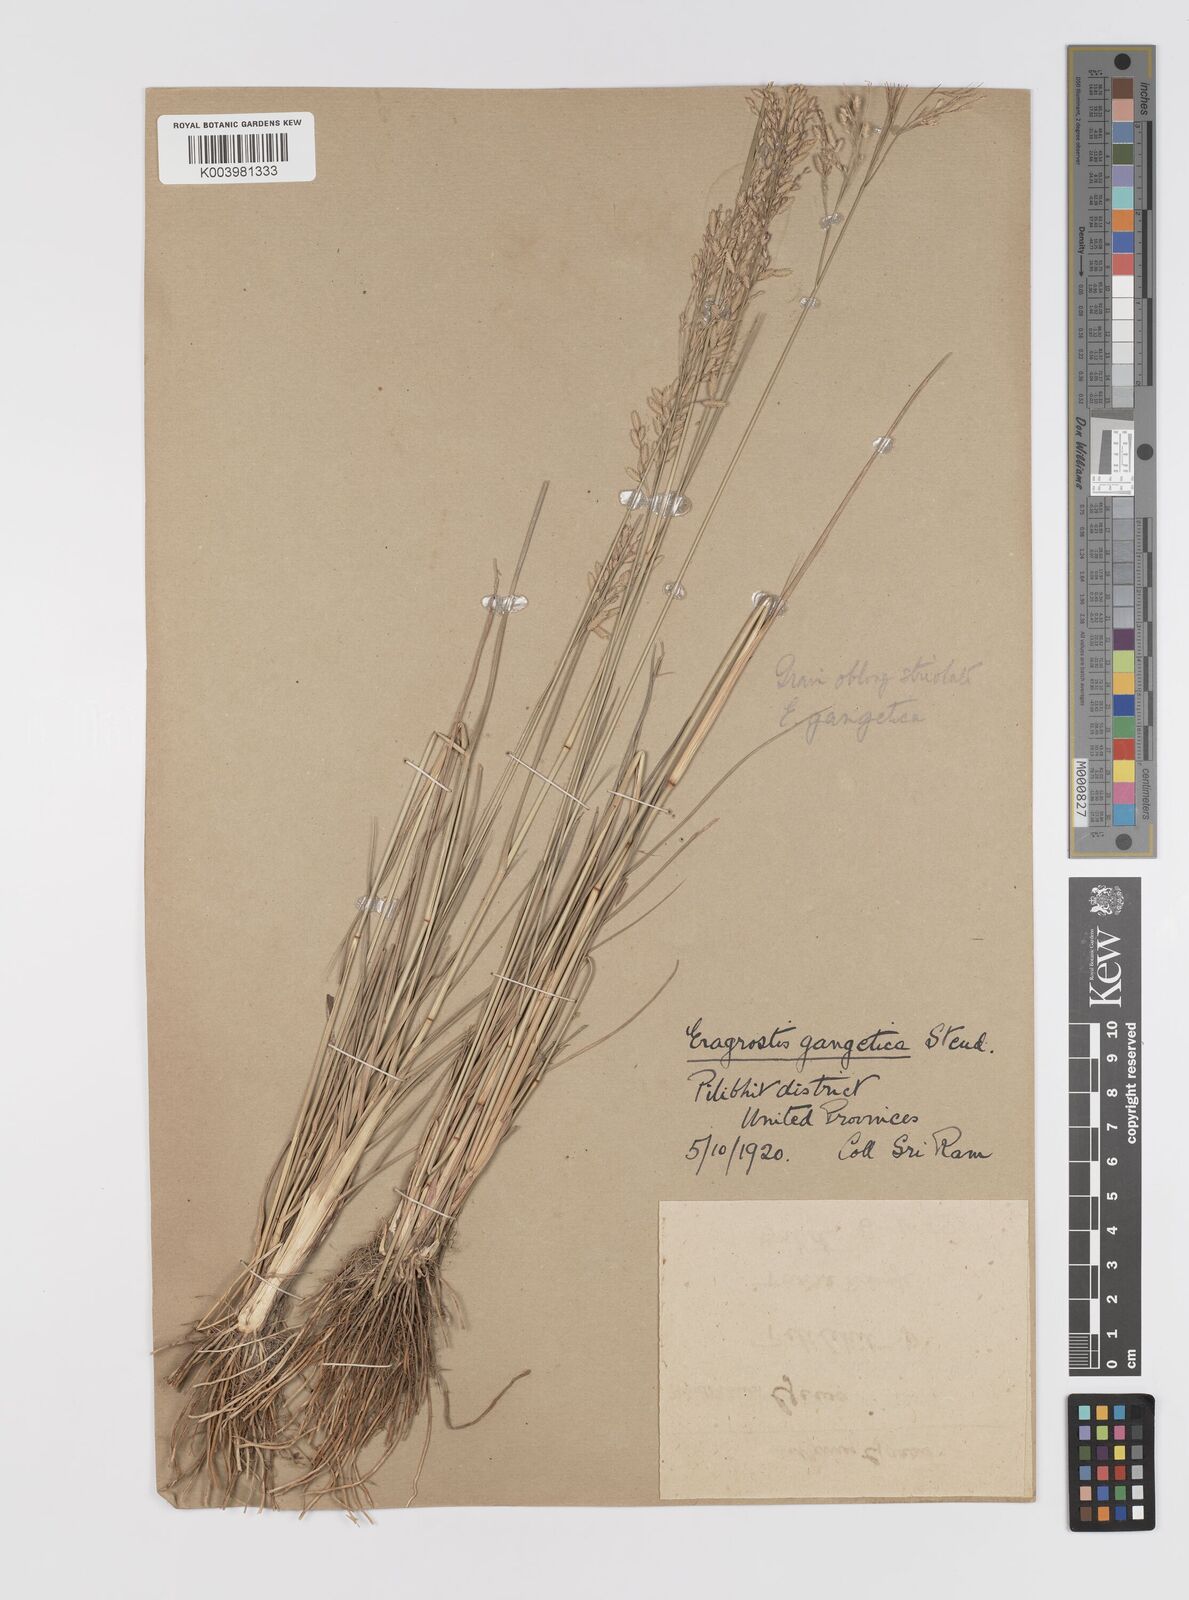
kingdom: Plantae
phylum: Tracheophyta
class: Liliopsida
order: Poales
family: Poaceae
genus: Eragrostis
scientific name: Eragrostis gangetica
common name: Slimflower lovegrass
